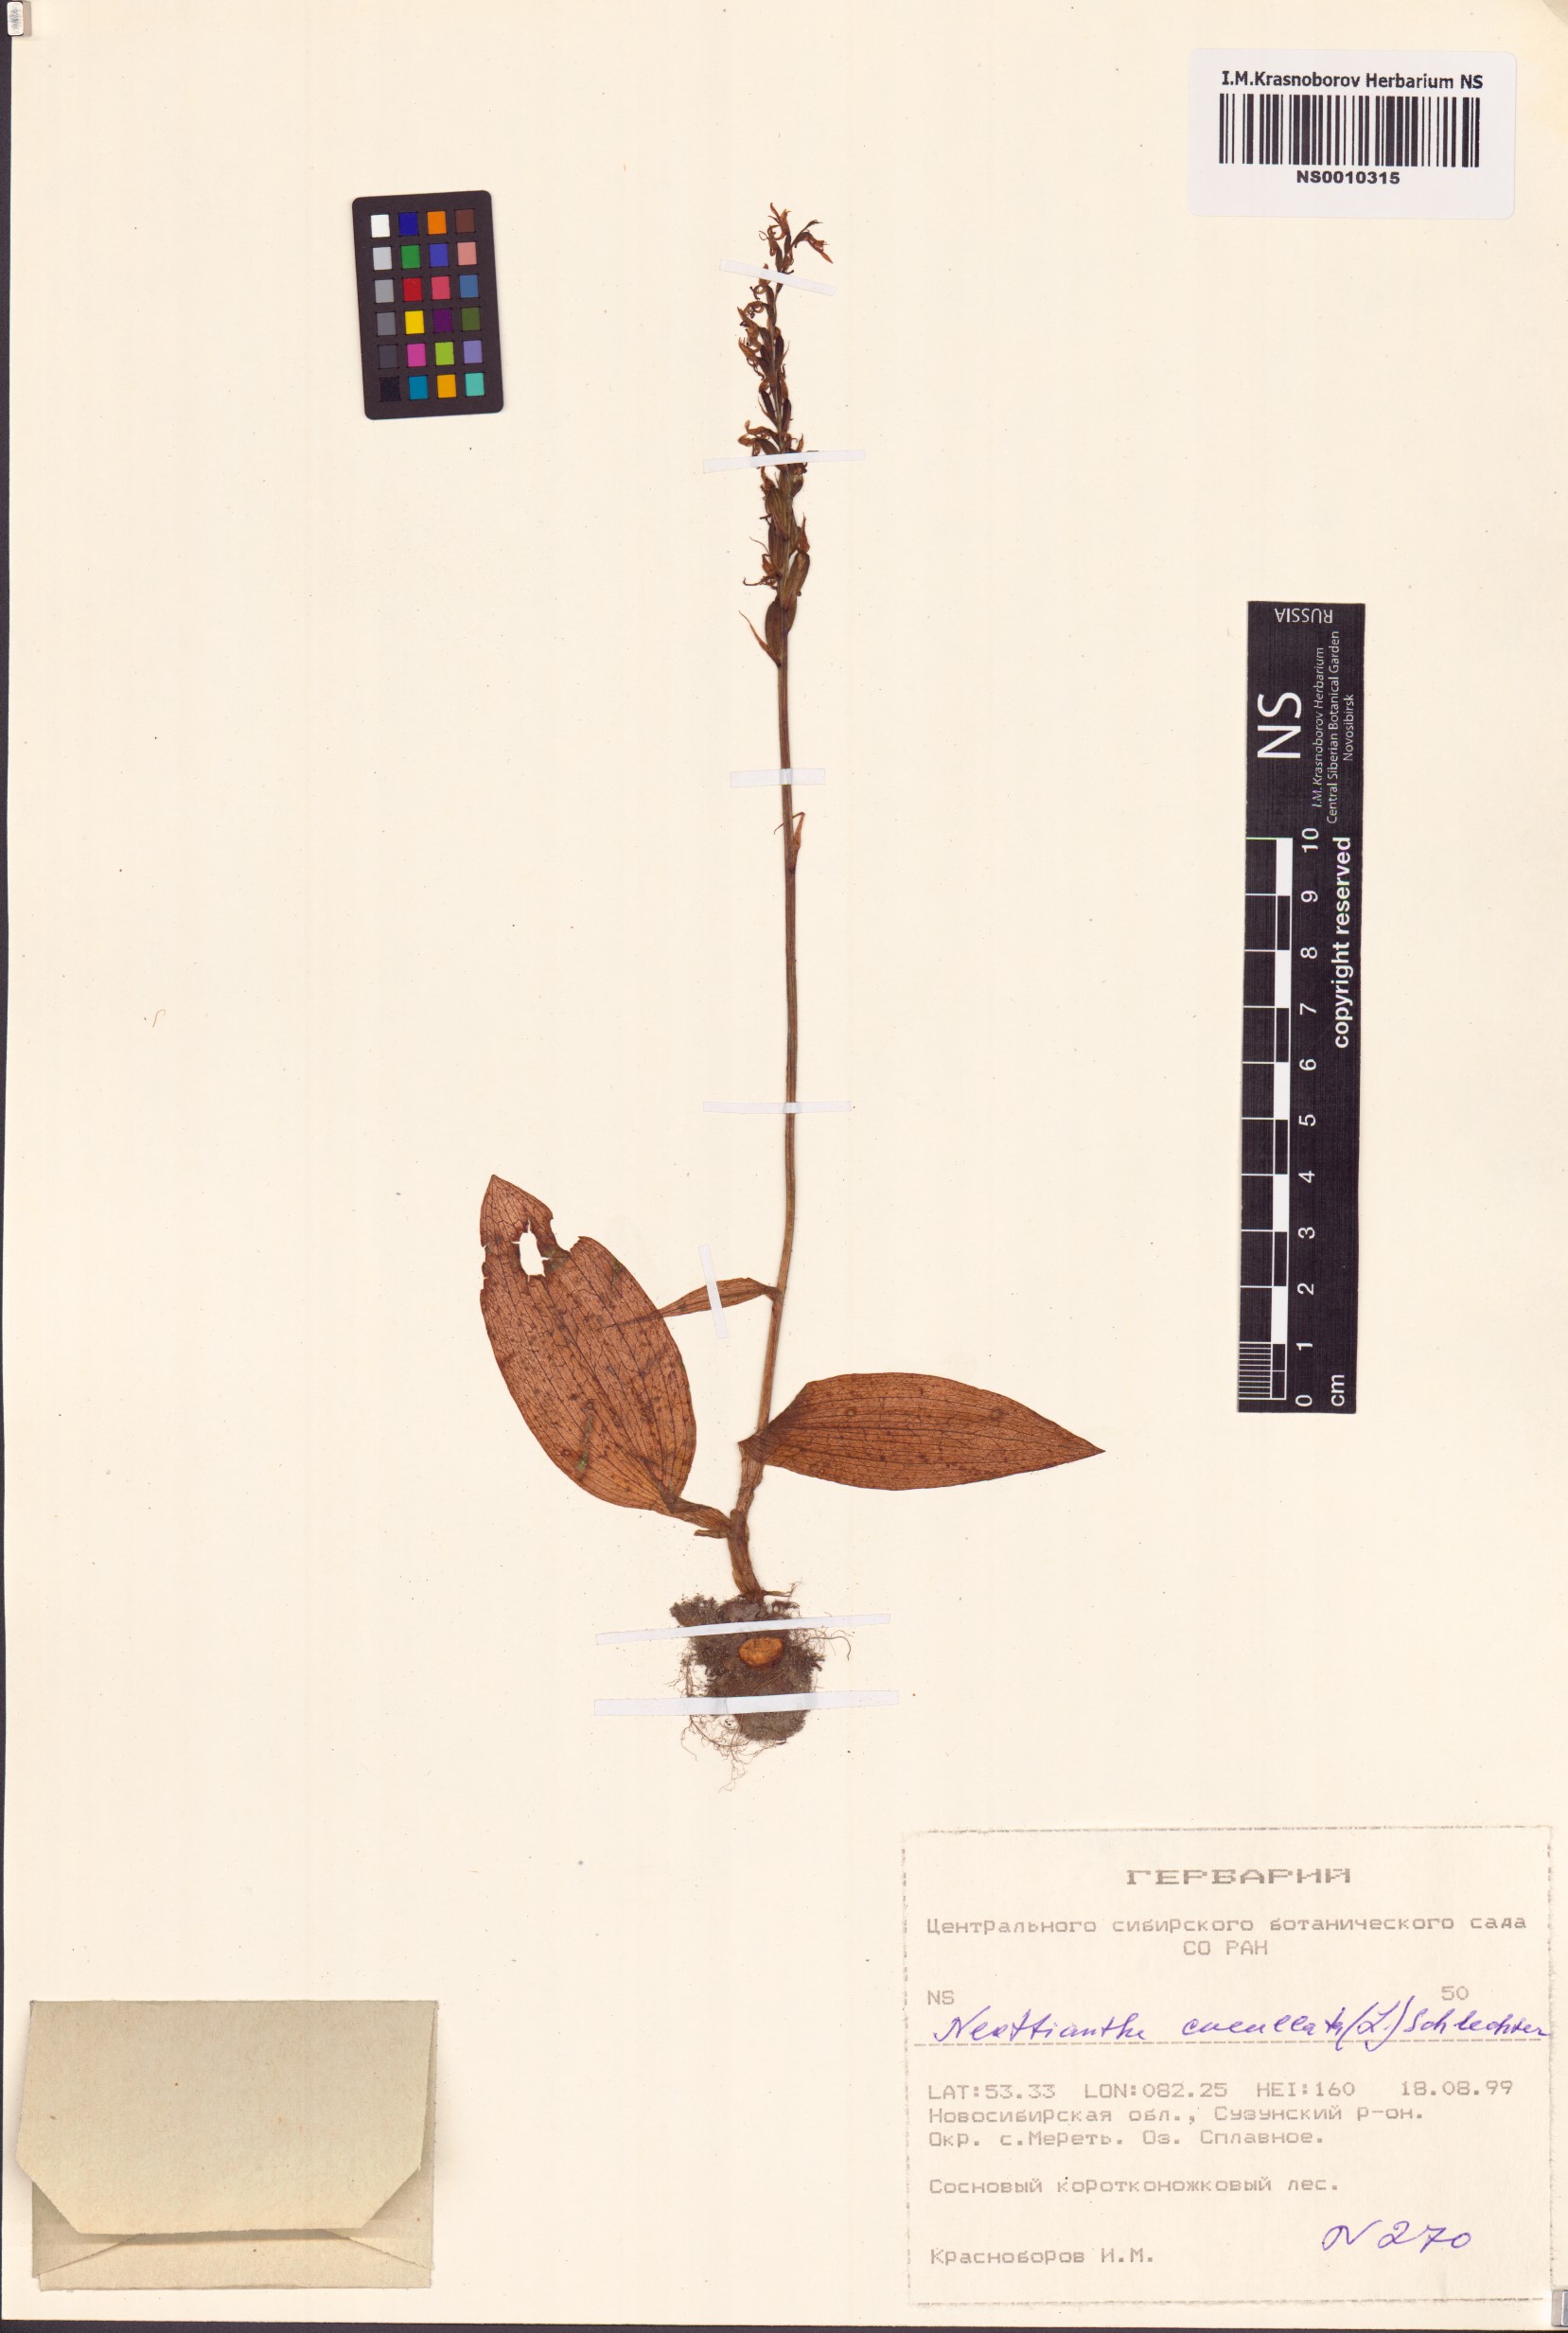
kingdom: Plantae
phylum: Tracheophyta
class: Liliopsida
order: Asparagales
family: Orchidaceae
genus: Hemipilia
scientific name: Hemipilia cucullata
